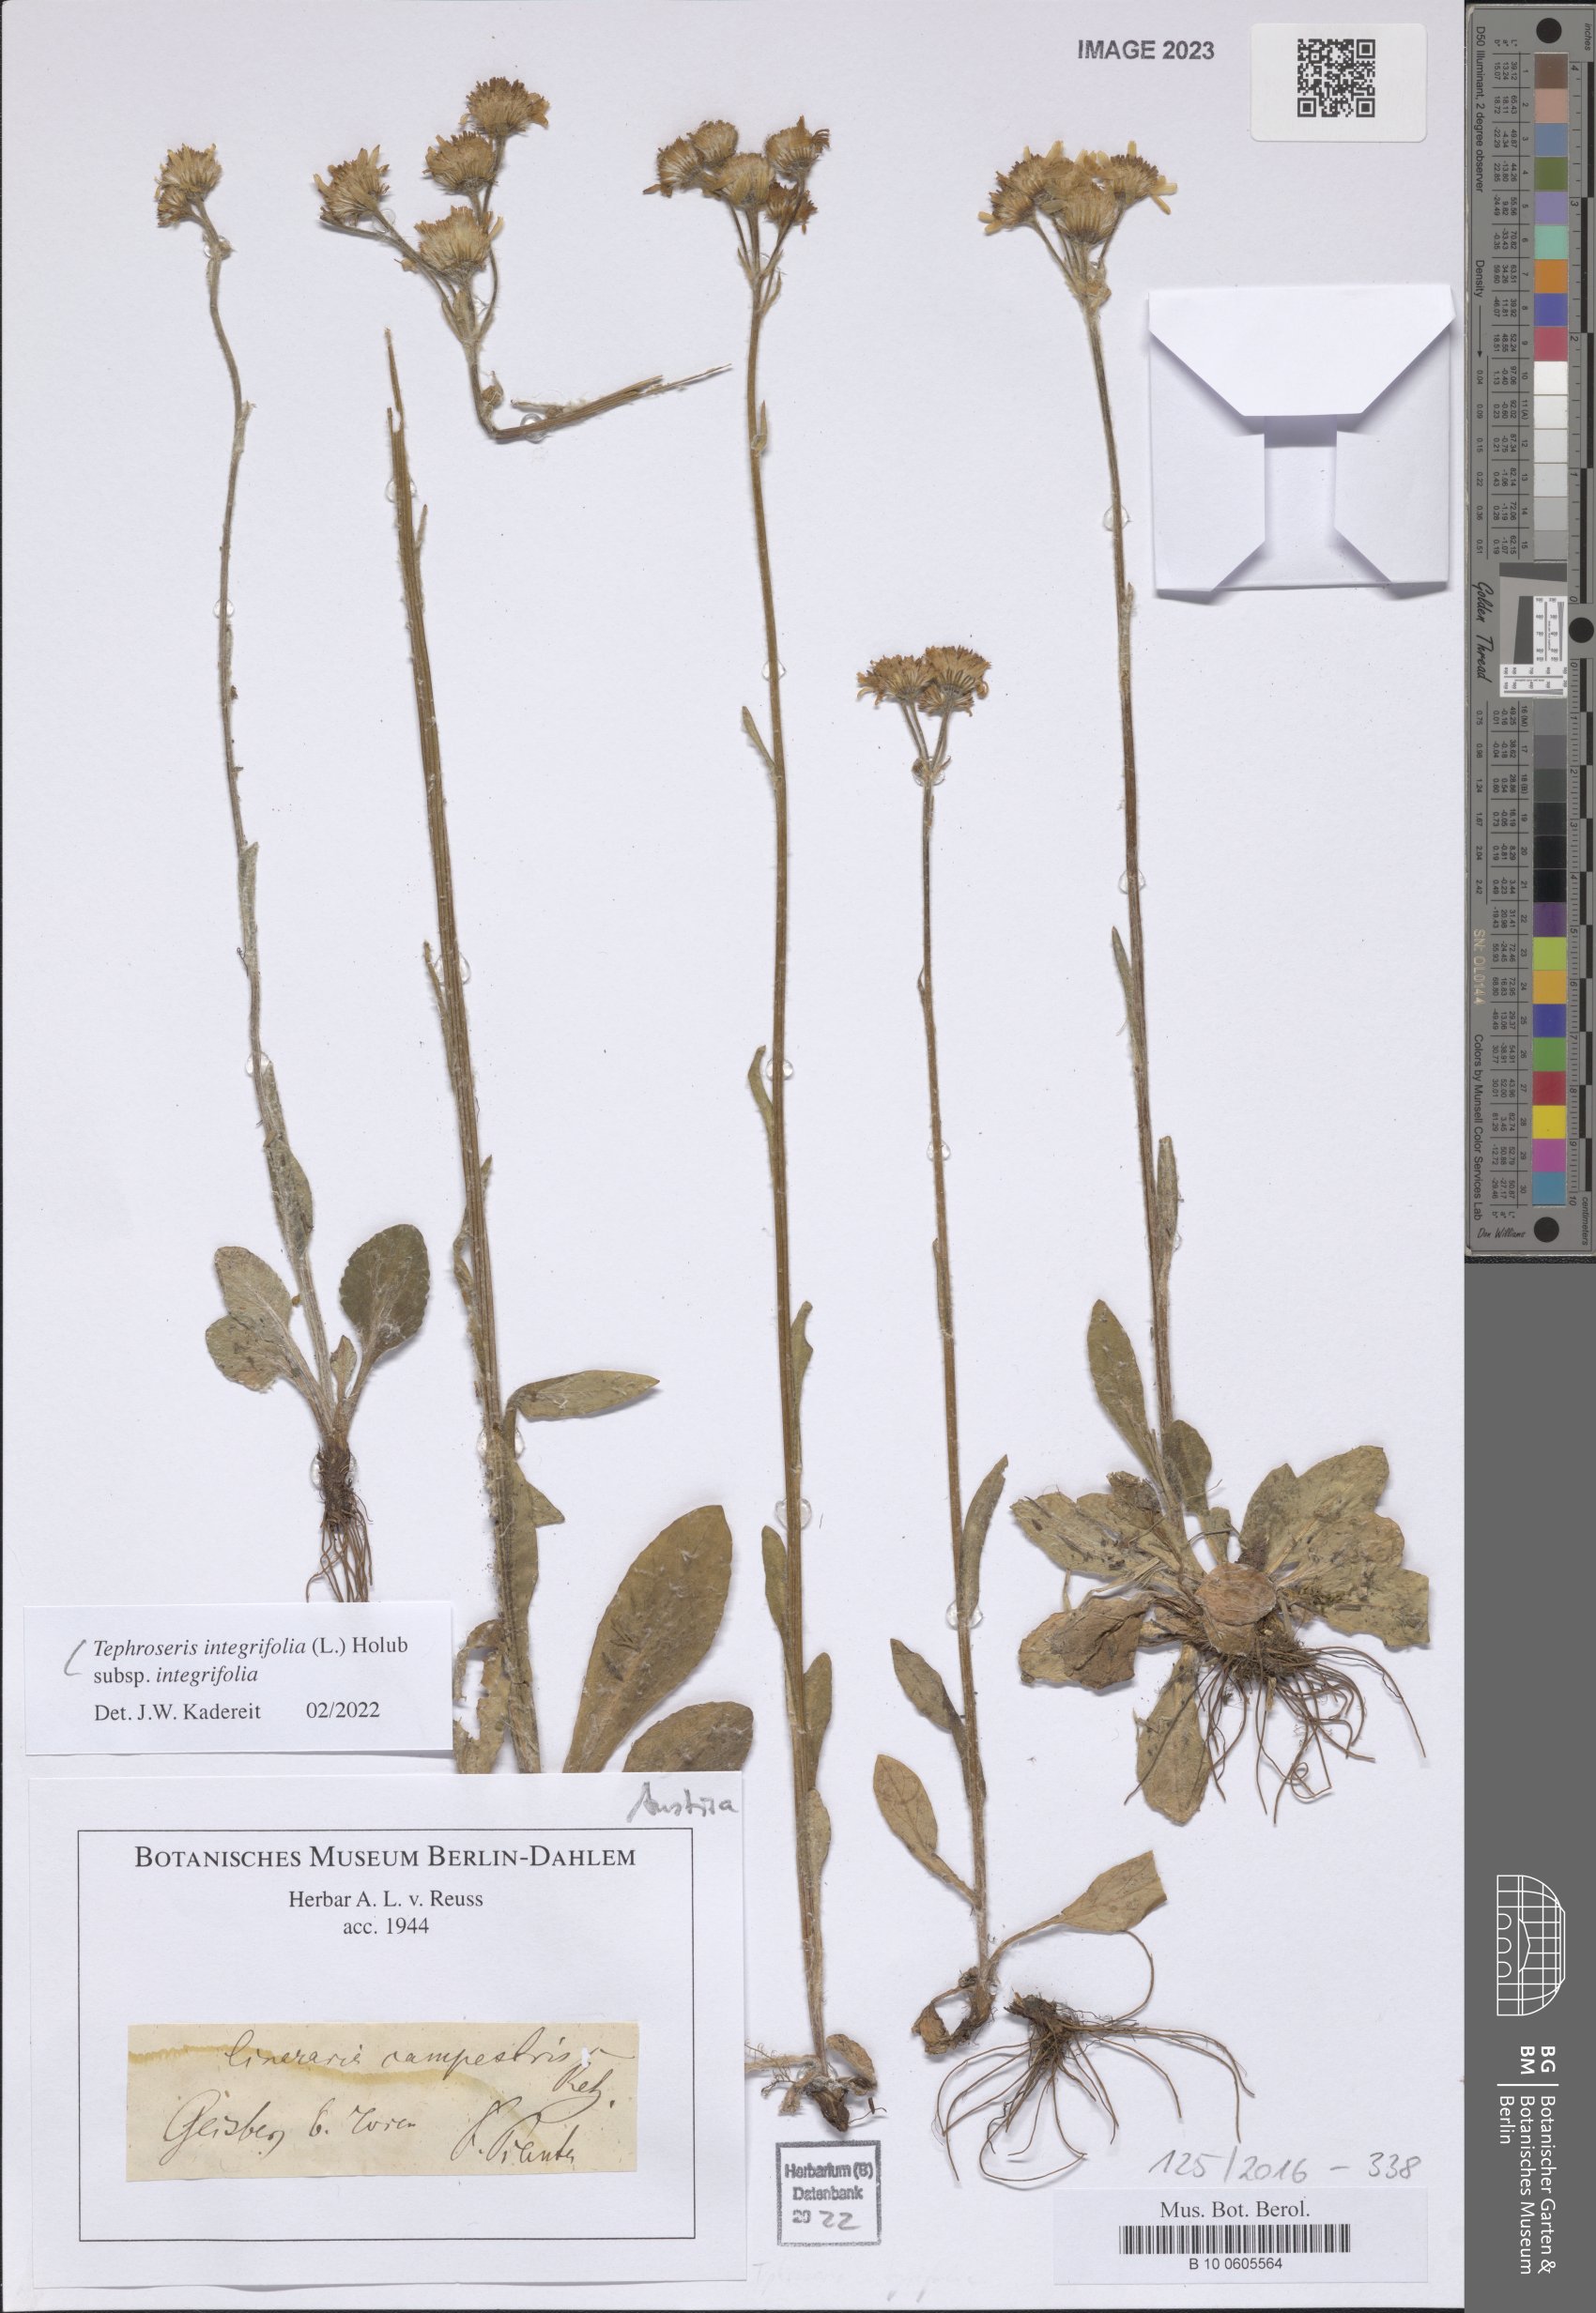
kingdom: Plantae
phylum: Tracheophyta
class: Magnoliopsida
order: Asterales
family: Asteraceae
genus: Tephroseris
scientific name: Tephroseris integrifolia
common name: Field fleawort
